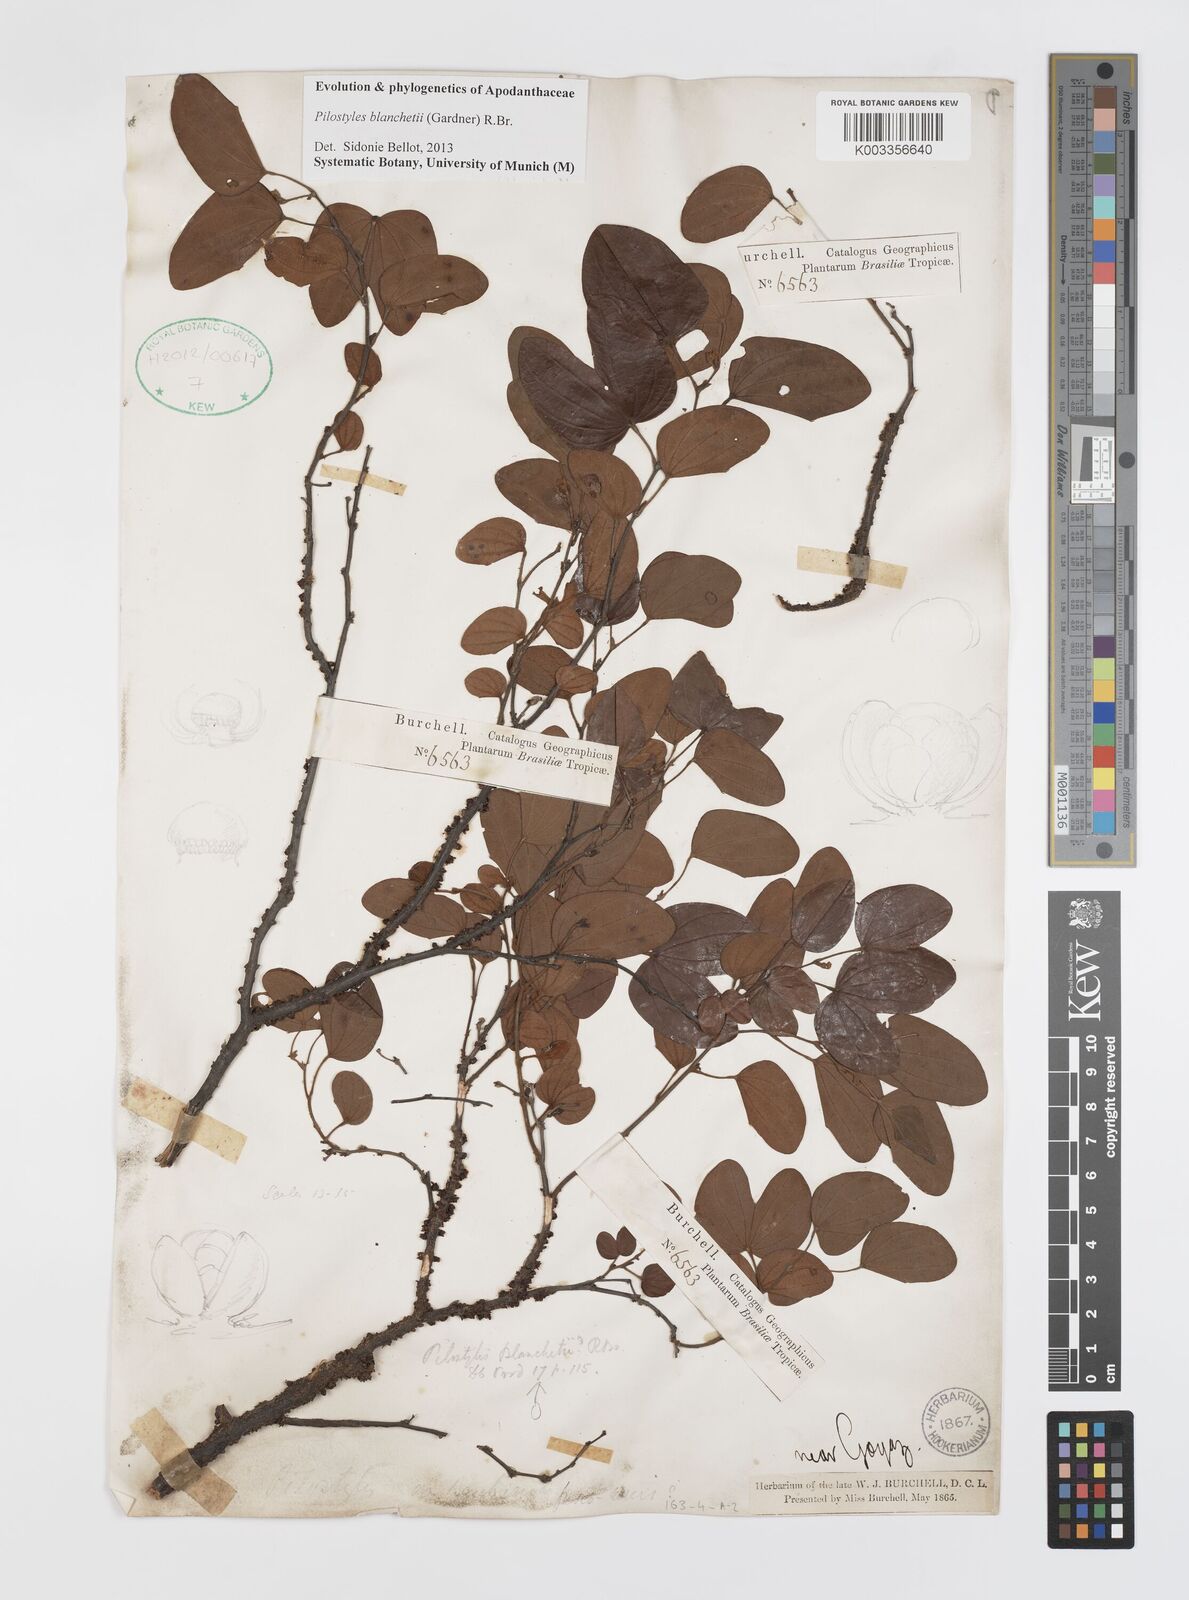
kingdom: Plantae
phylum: Tracheophyta
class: Magnoliopsida
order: Cucurbitales
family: Apodanthaceae
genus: Pilostyles
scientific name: Pilostyles blanchetii
